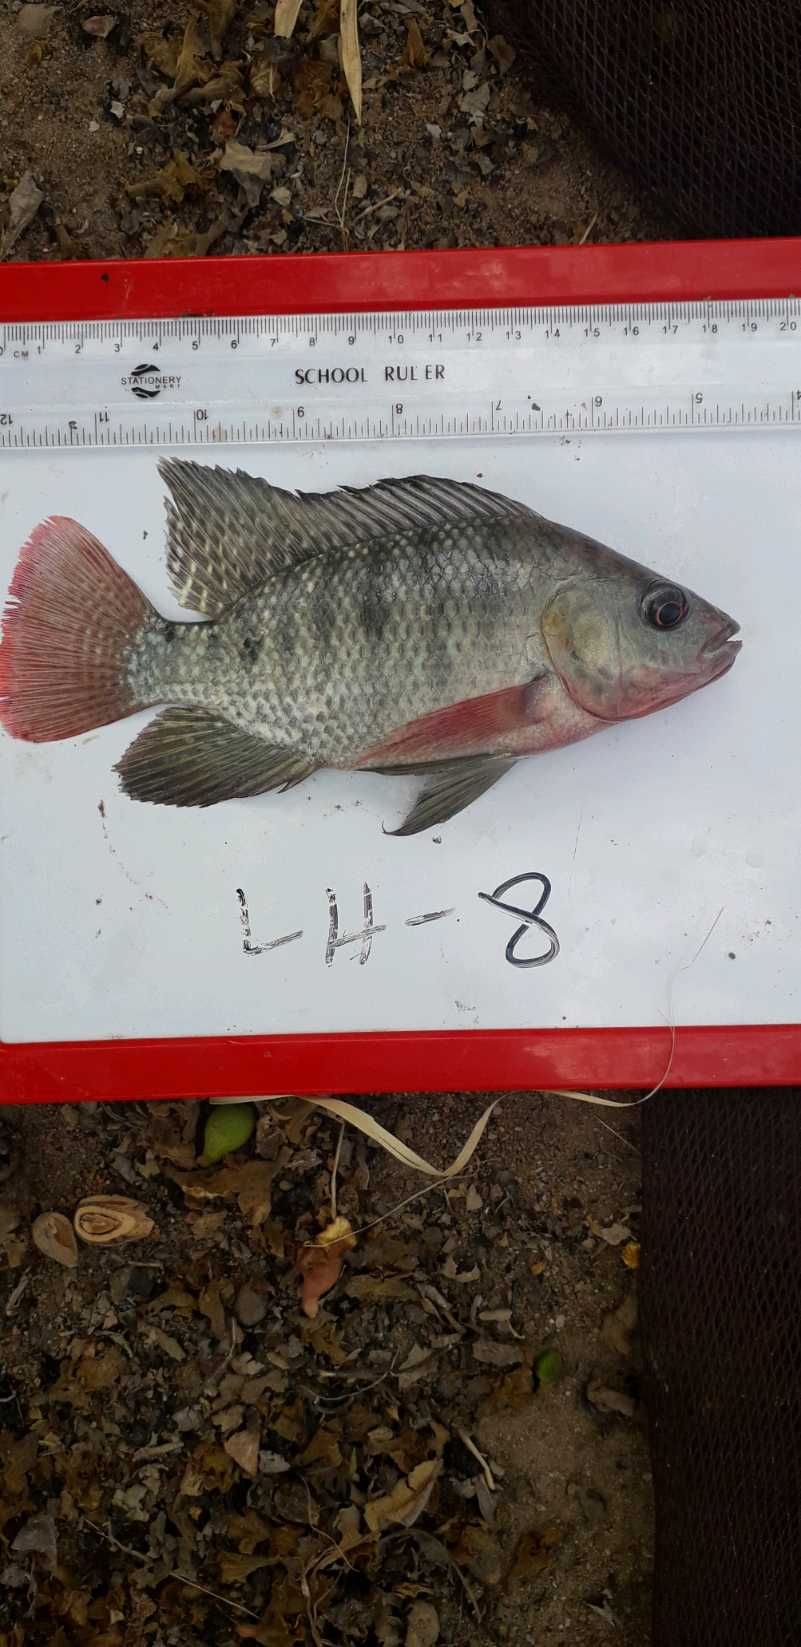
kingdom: Animalia
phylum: Chordata
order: Perciformes
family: Cichlidae
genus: Oreochromis
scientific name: Oreochromis
